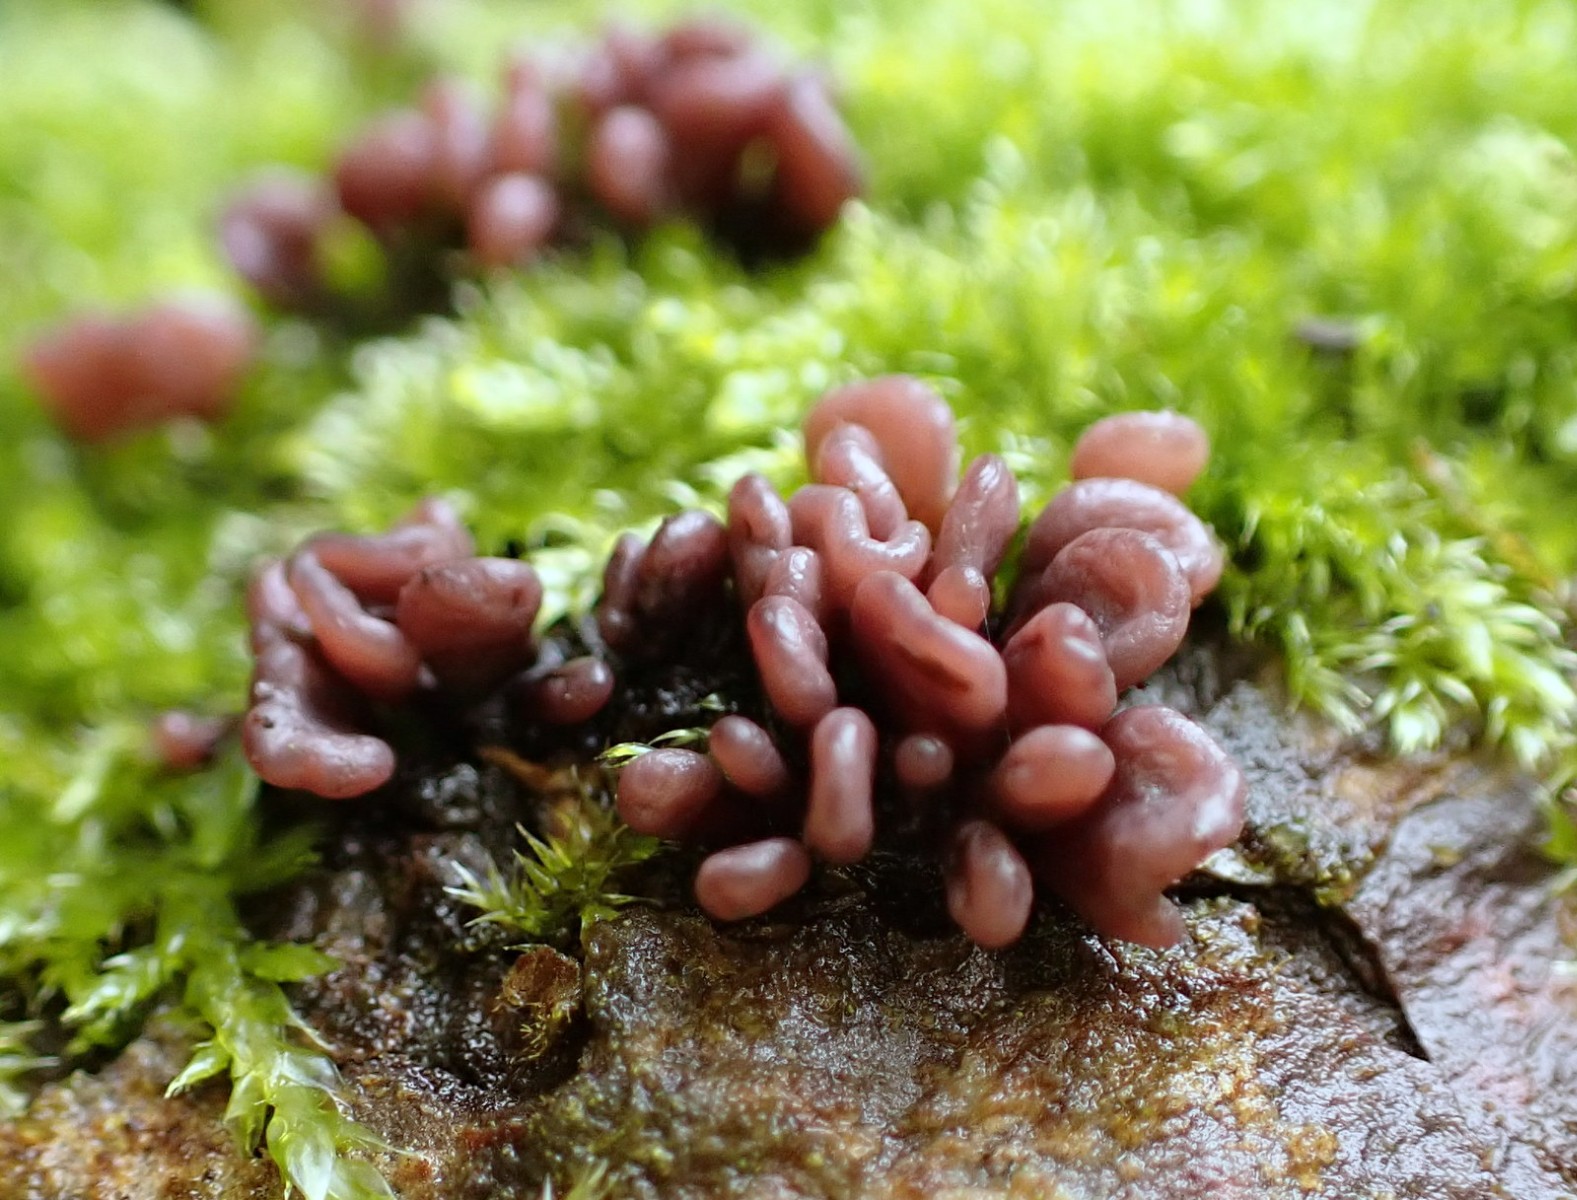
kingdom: Fungi
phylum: Ascomycota
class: Leotiomycetes
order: Helotiales
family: Gelatinodiscaceae
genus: Ascocoryne
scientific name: Ascocoryne sarcoides
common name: rødlilla sejskive
